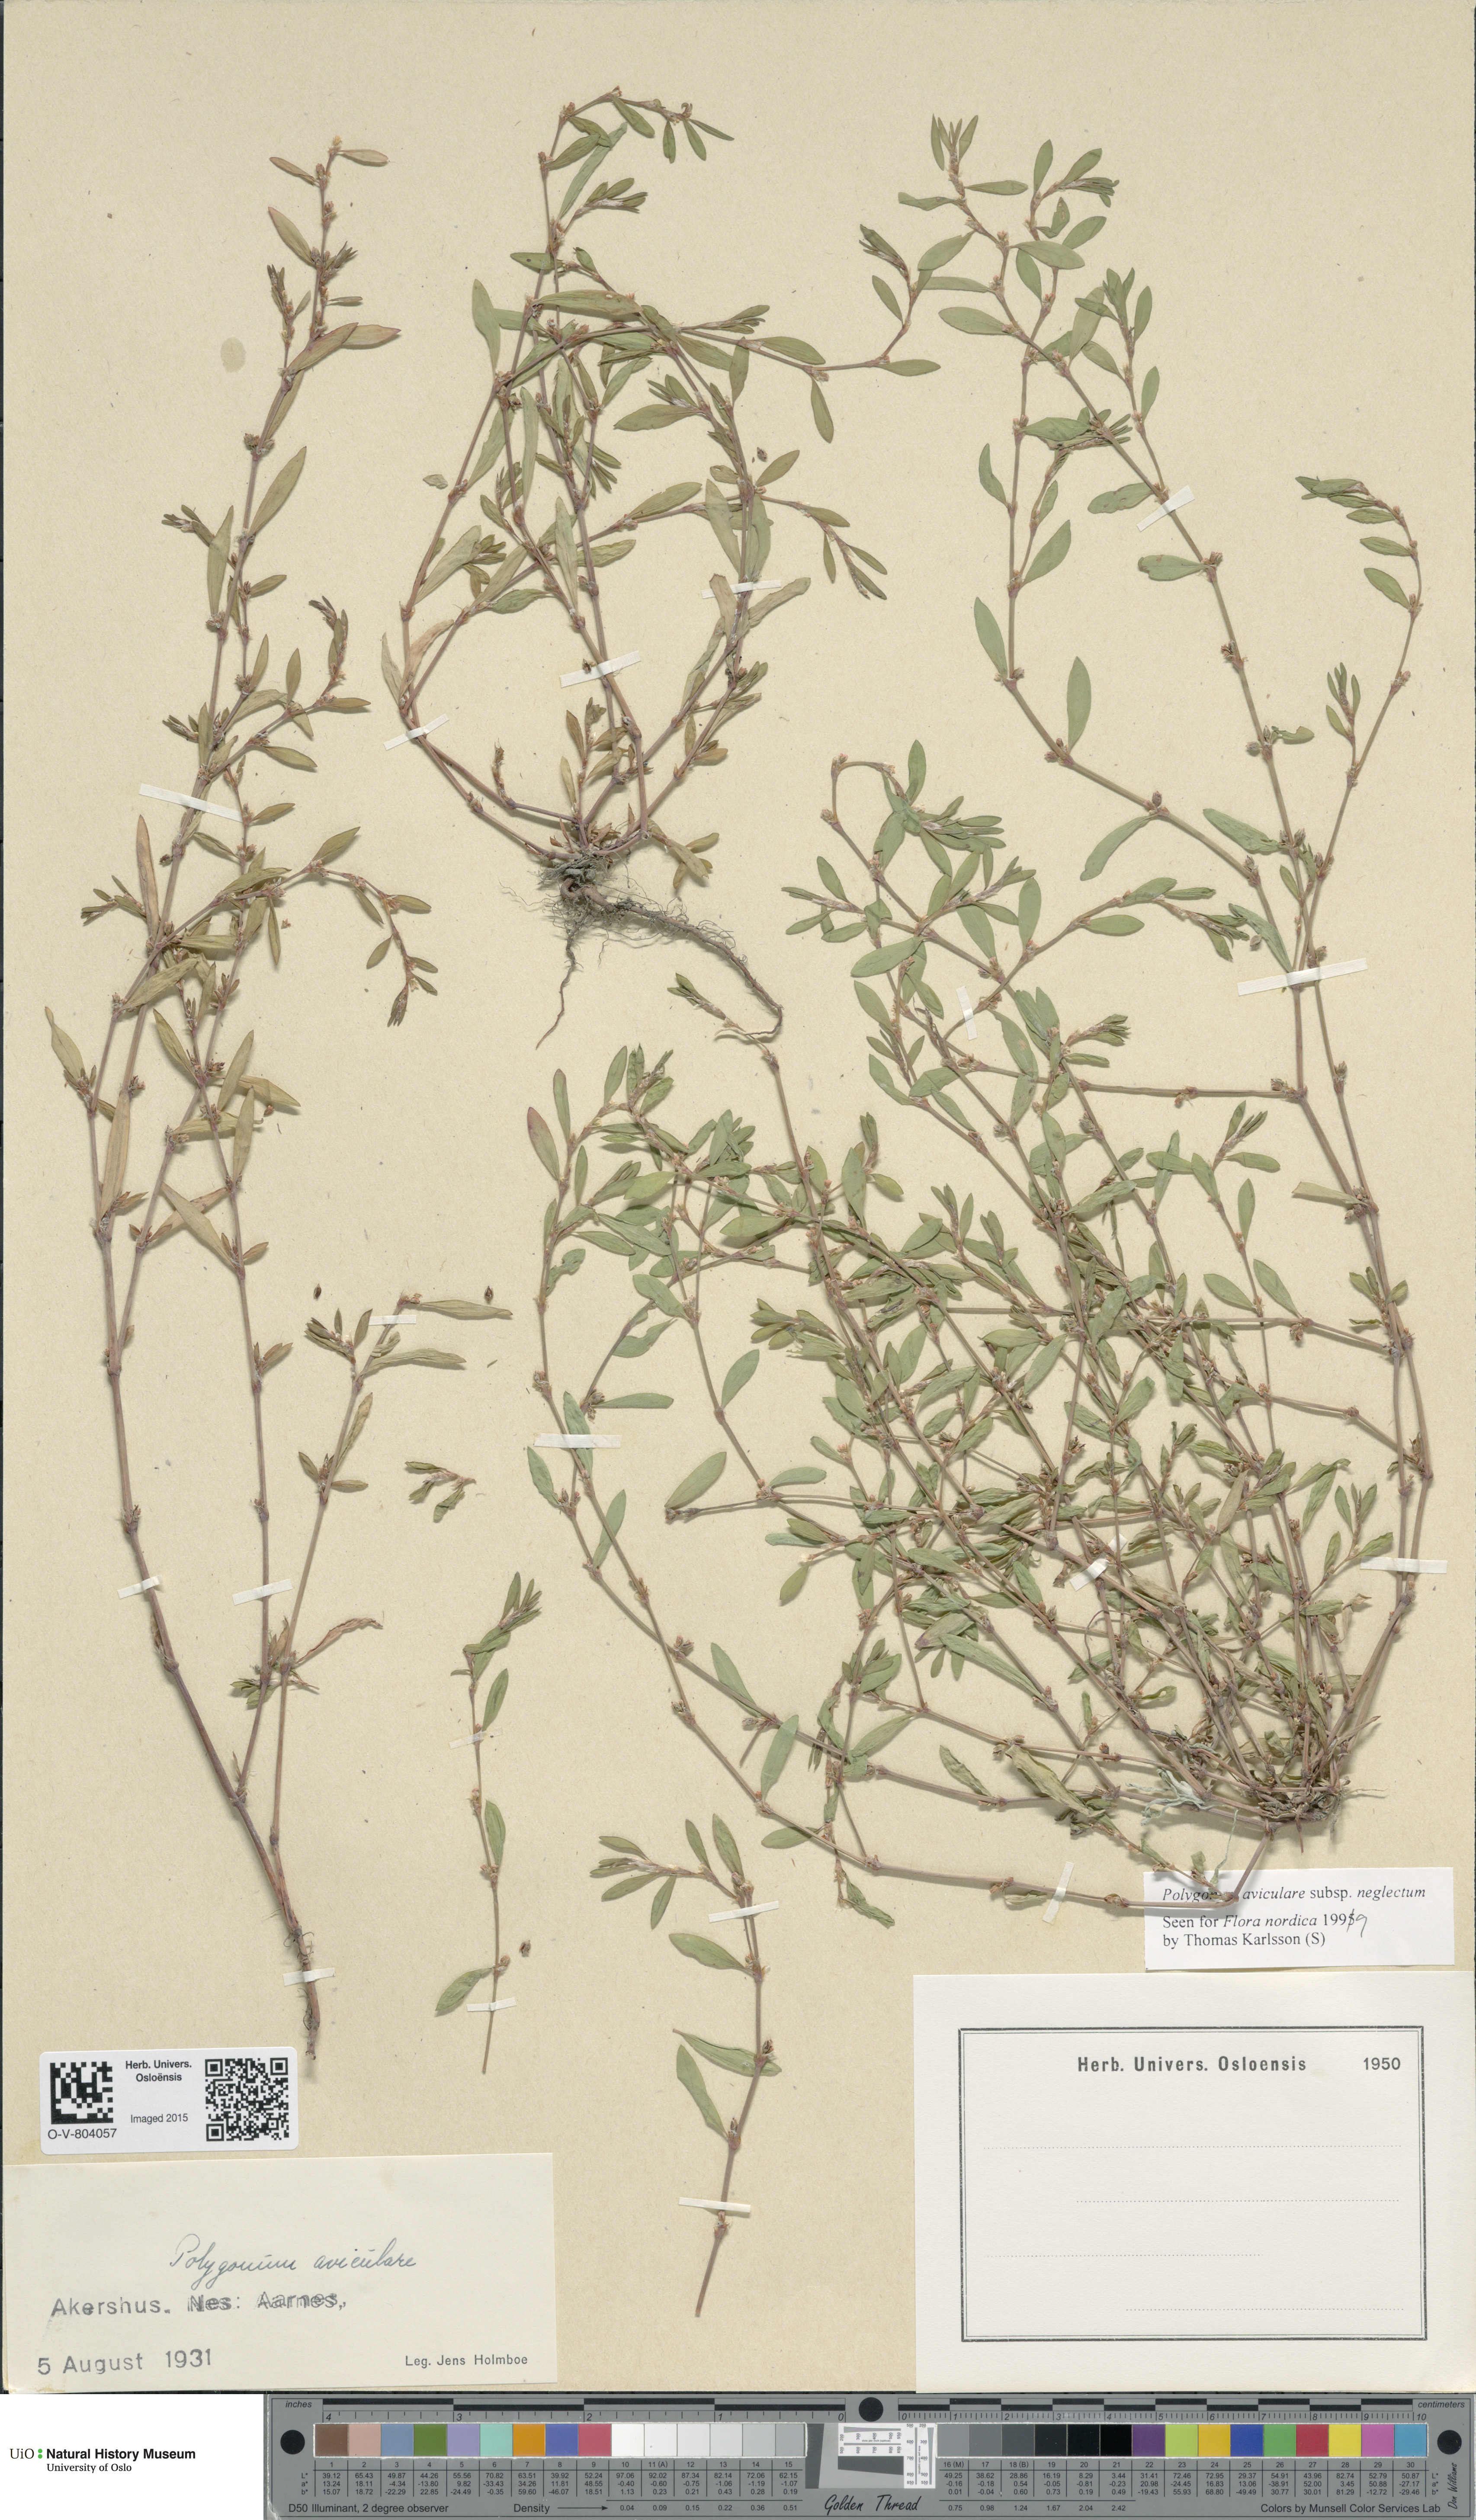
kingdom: Plantae
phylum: Tracheophyta
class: Magnoliopsida
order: Caryophyllales
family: Polygonaceae
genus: Polygonum
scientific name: Polygonum aviculare
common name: Prostrate knotweed
